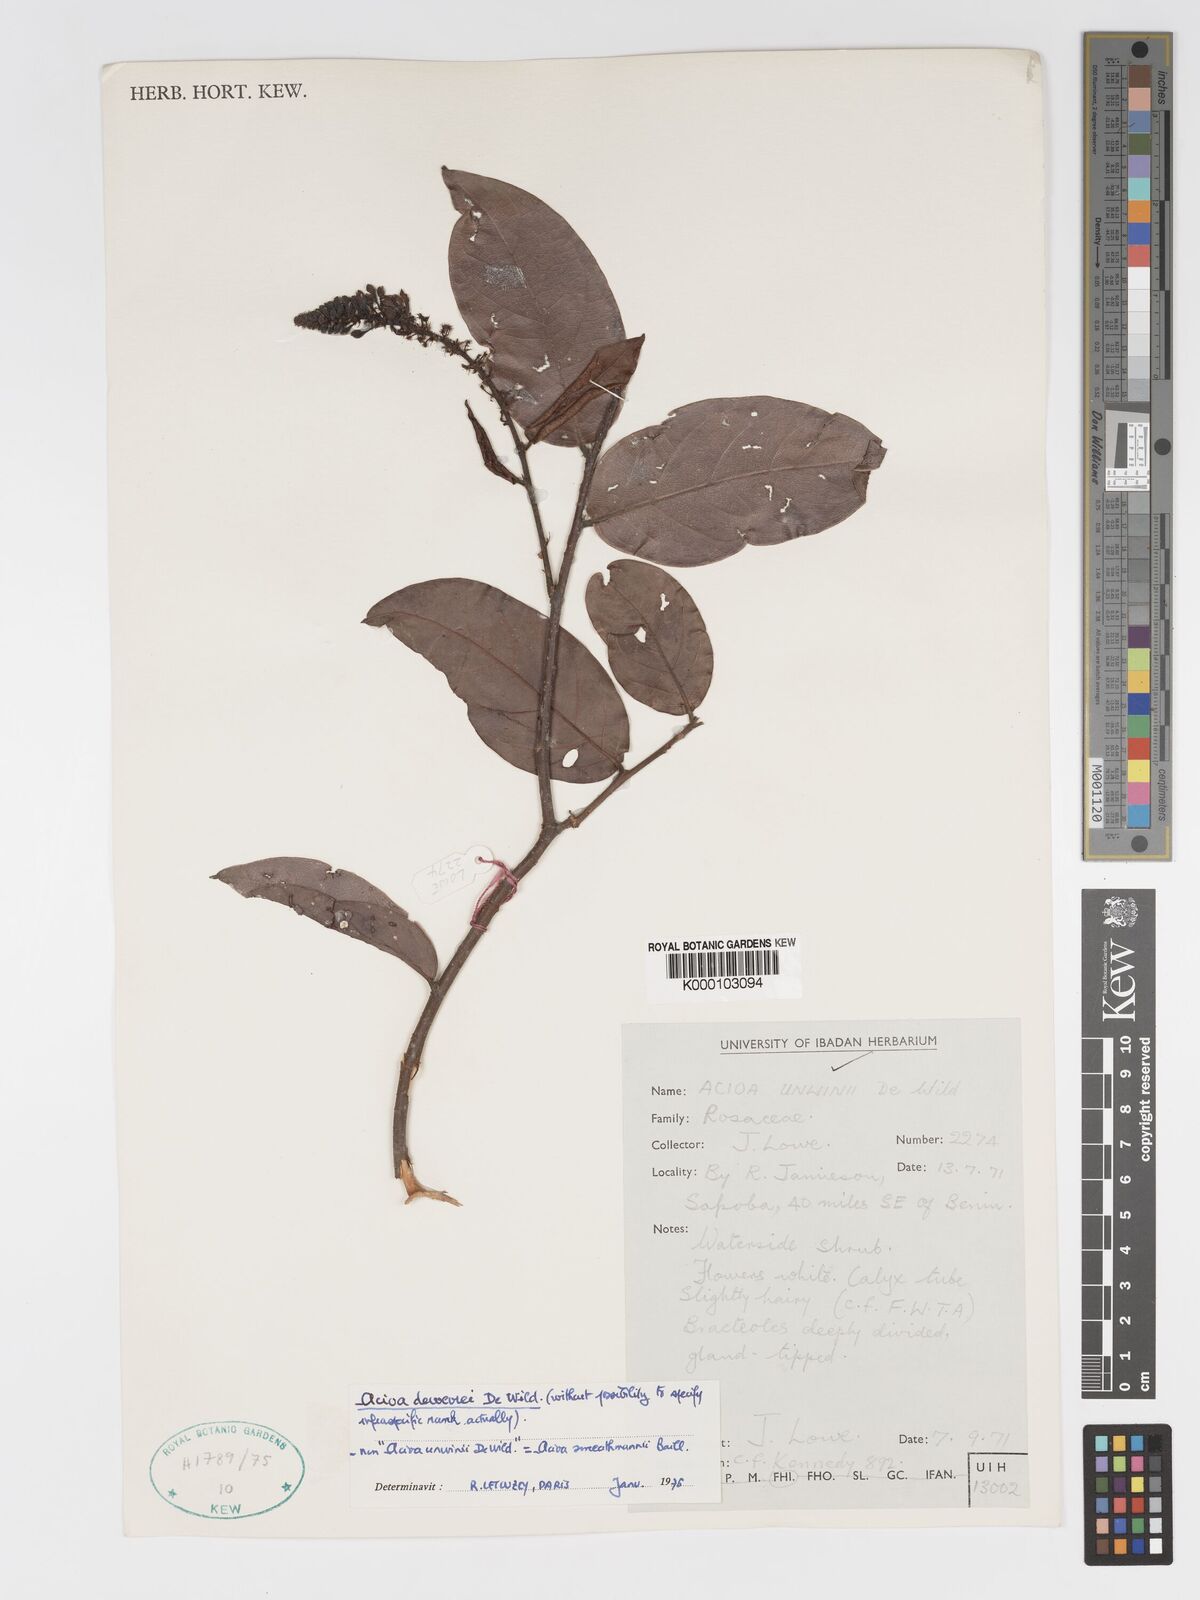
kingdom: Plantae
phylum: Tracheophyta
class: Magnoliopsida
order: Malpighiales
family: Chrysobalanaceae
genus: Dactyladenia
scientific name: Dactyladenia dewevrei
